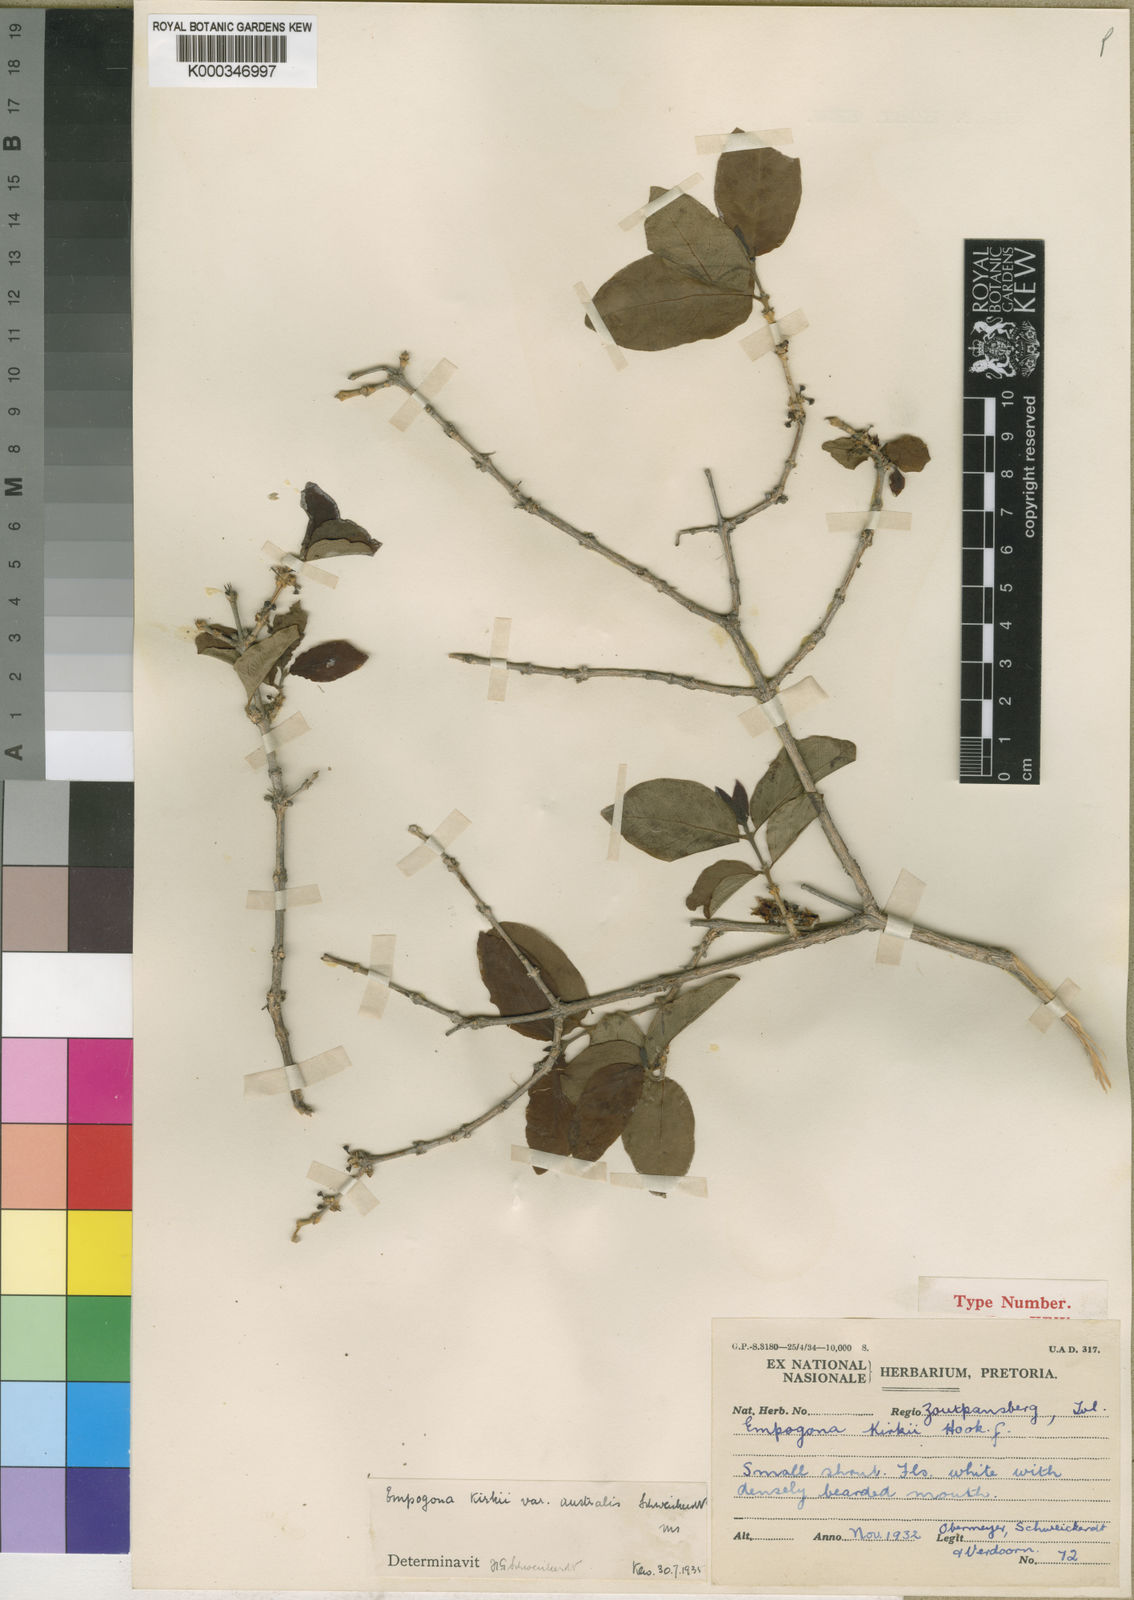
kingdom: Plantae
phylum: Tracheophyta
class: Magnoliopsida
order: Gentianales
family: Rubiaceae
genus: Empogona
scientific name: Empogona kirkii
